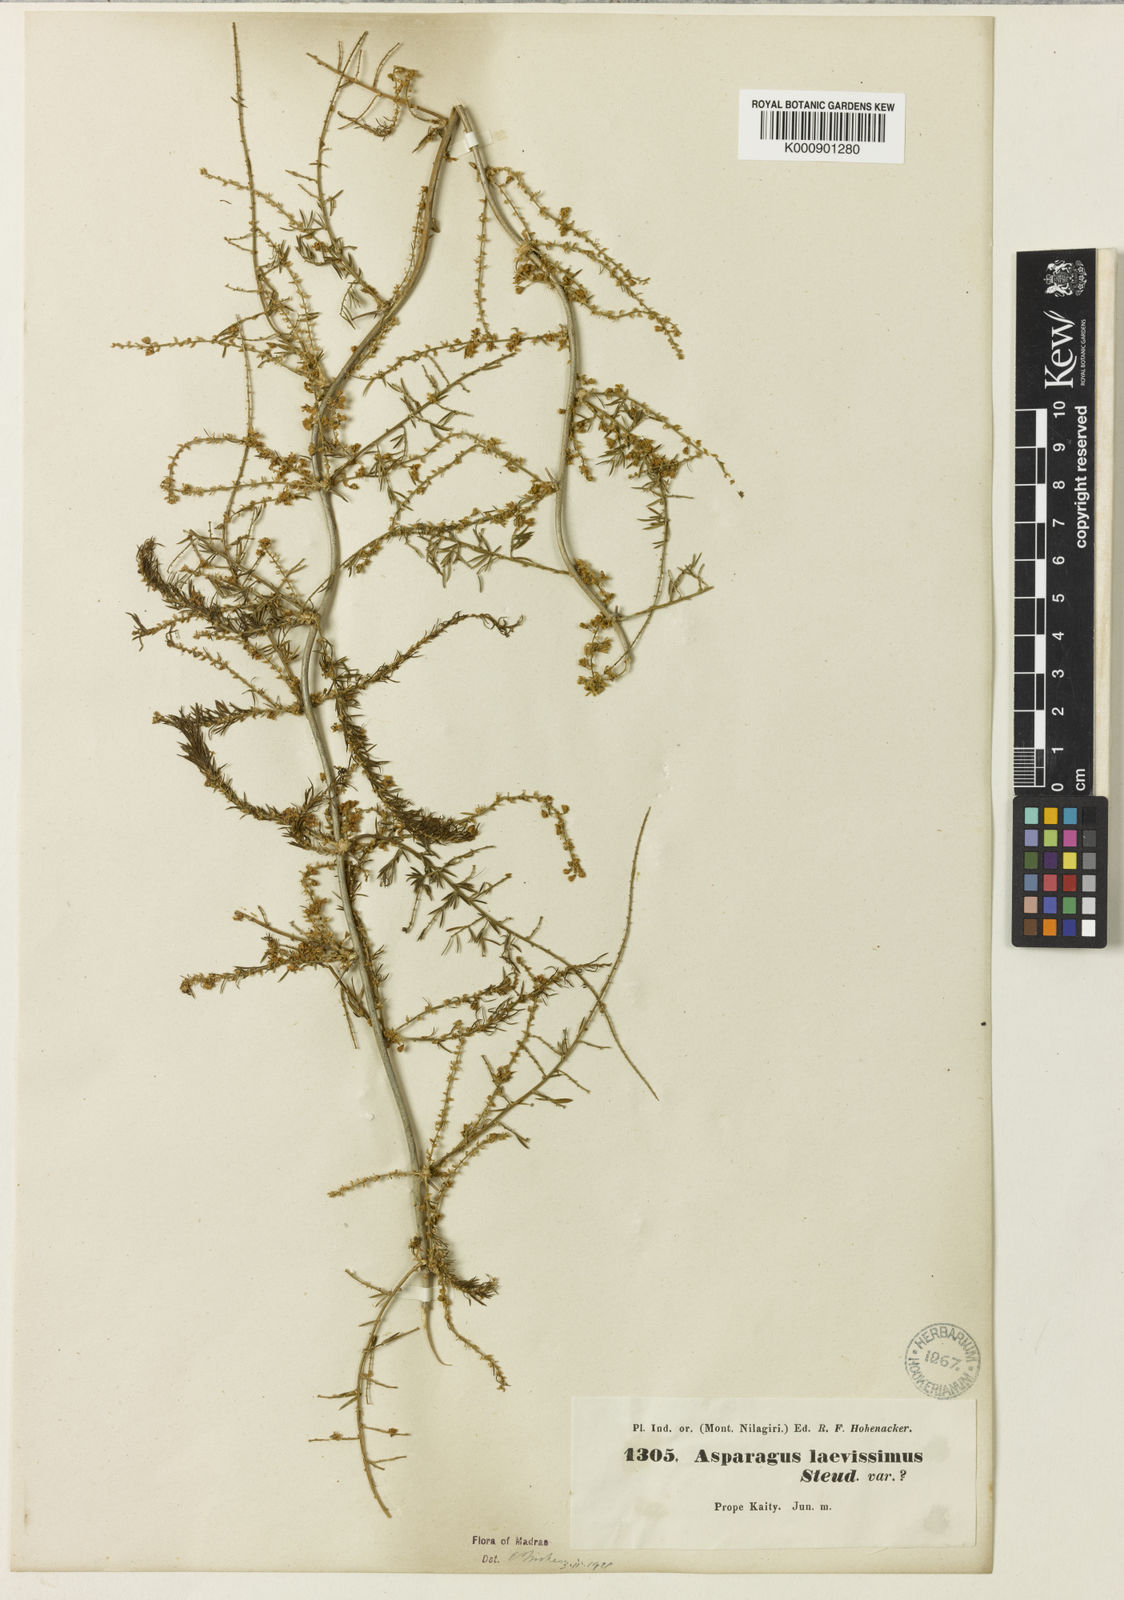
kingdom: Plantae
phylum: Tracheophyta
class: Liliopsida
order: Asparagales
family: Asparagaceae
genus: Asparagus
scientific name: Asparagus laevissimus
